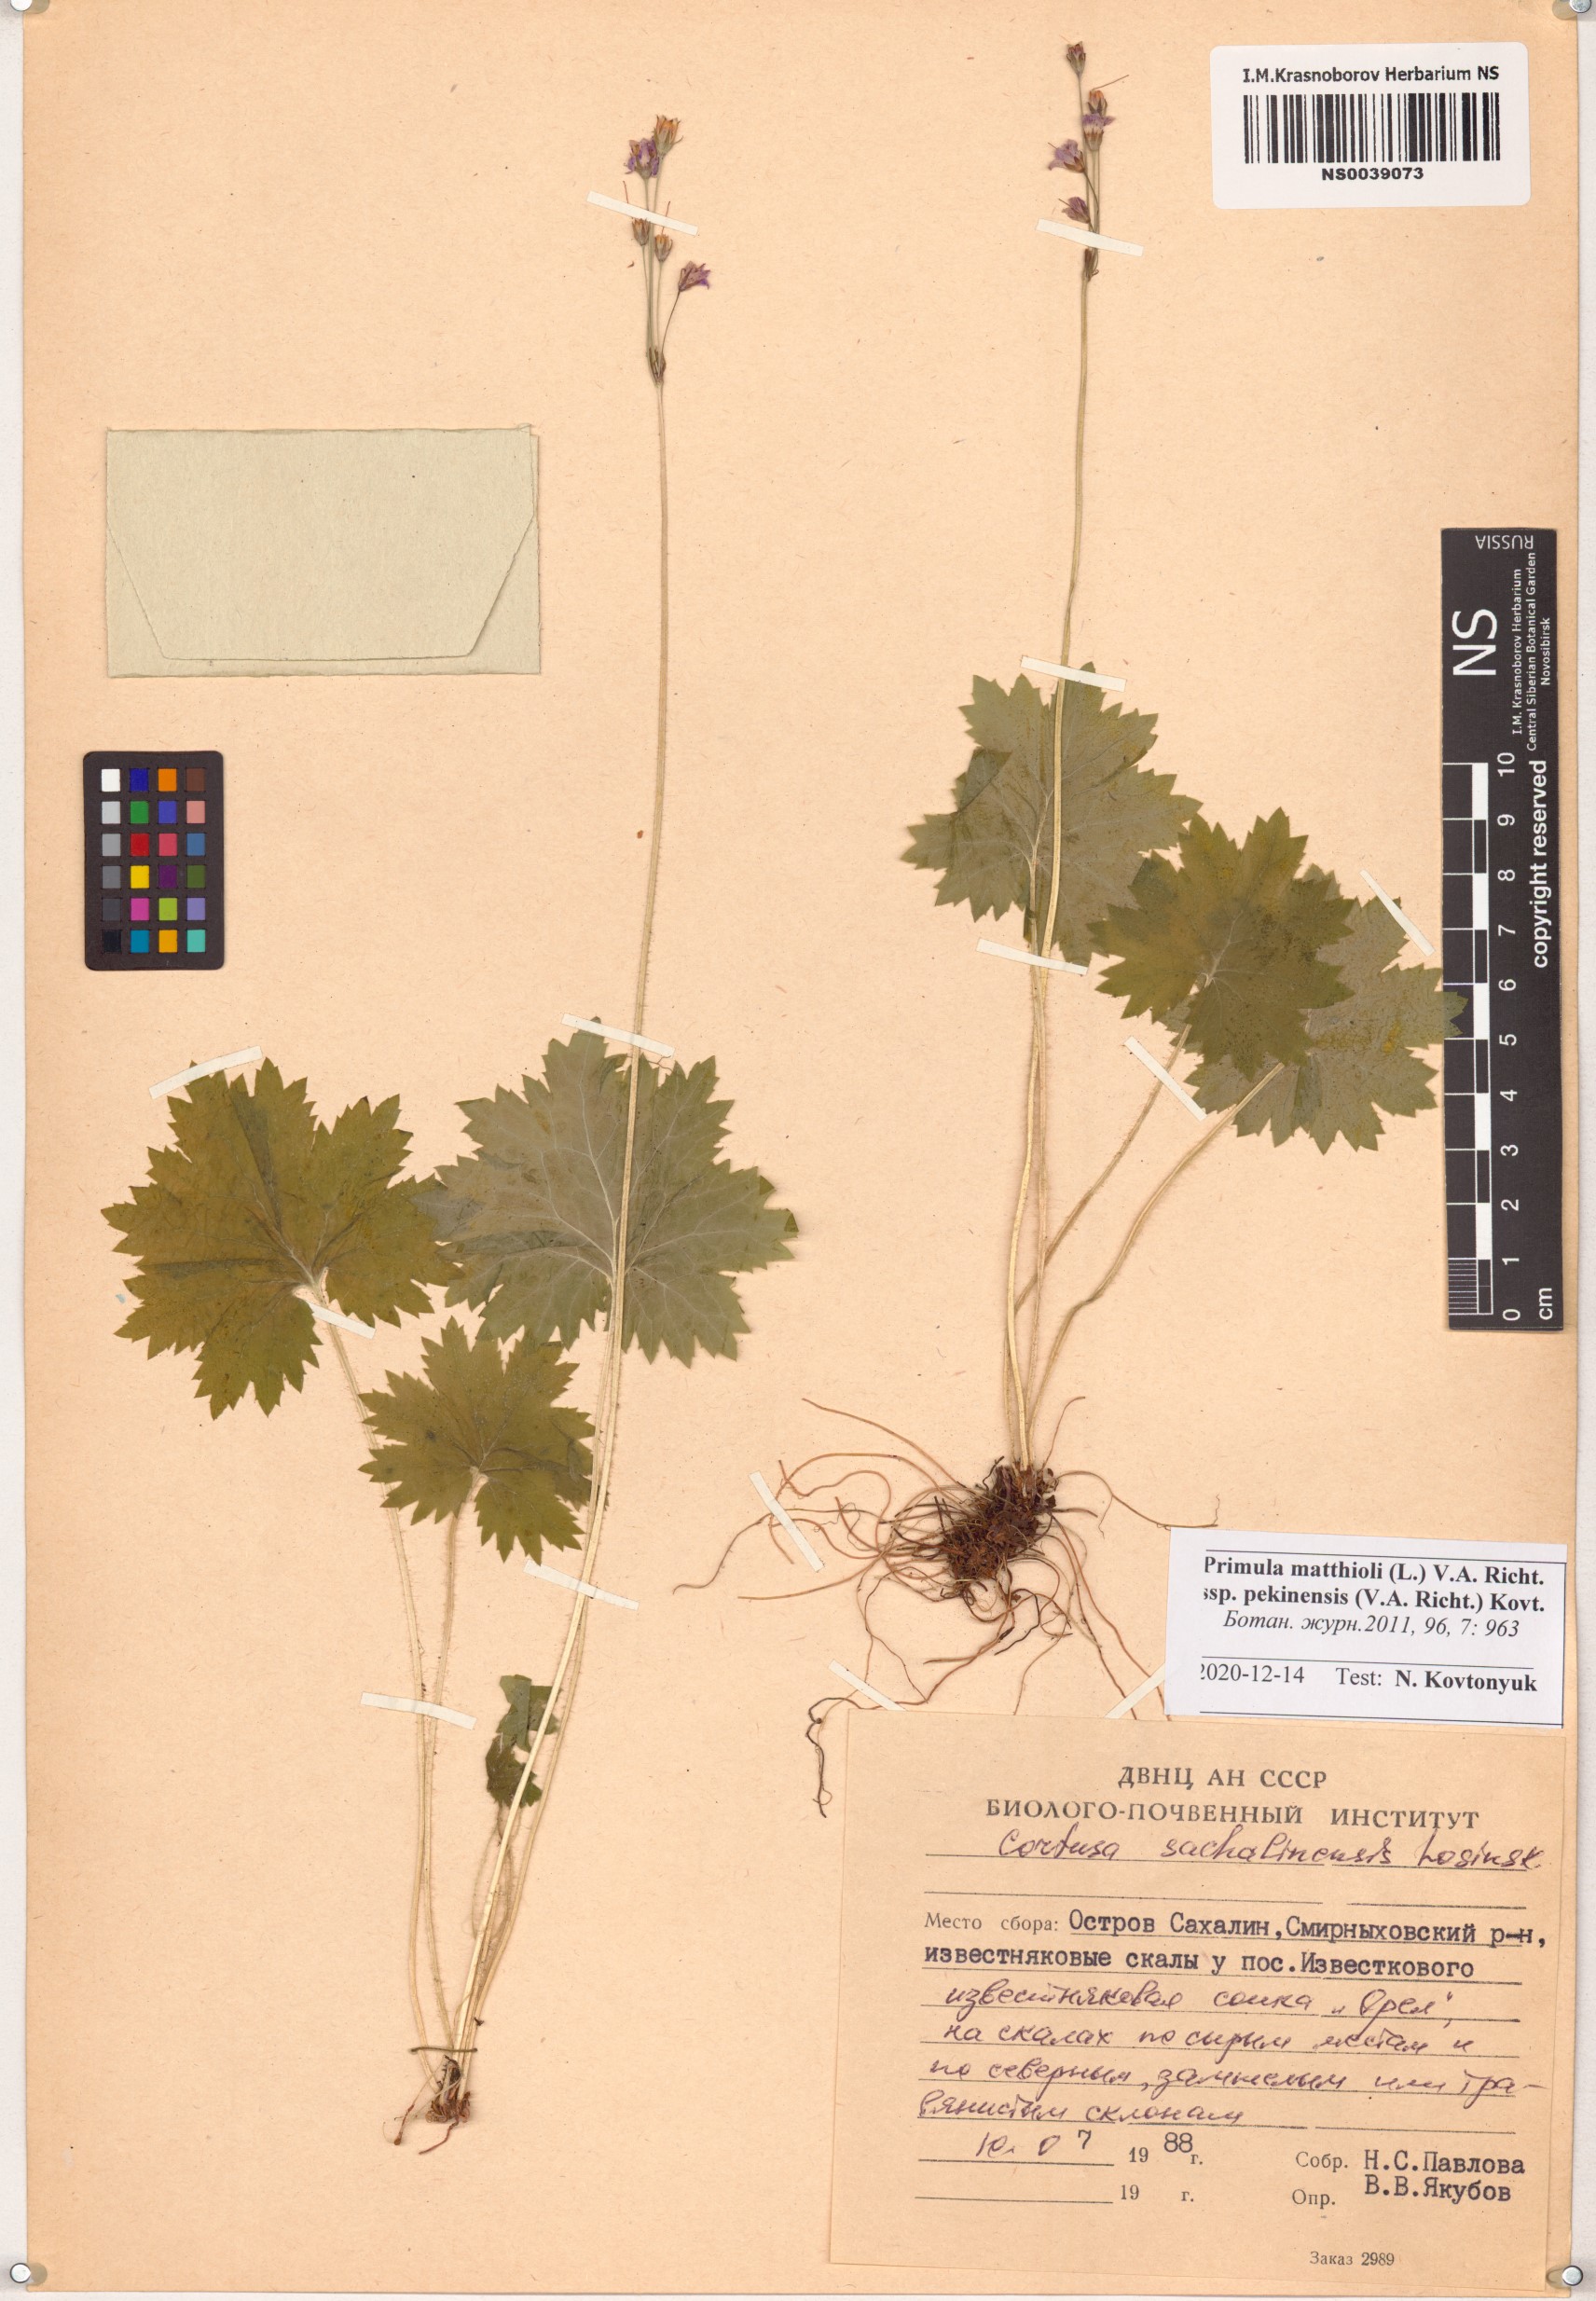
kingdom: Plantae
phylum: Tracheophyta
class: Magnoliopsida
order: Ericales
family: Primulaceae
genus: Primula
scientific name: Primula matthioli
